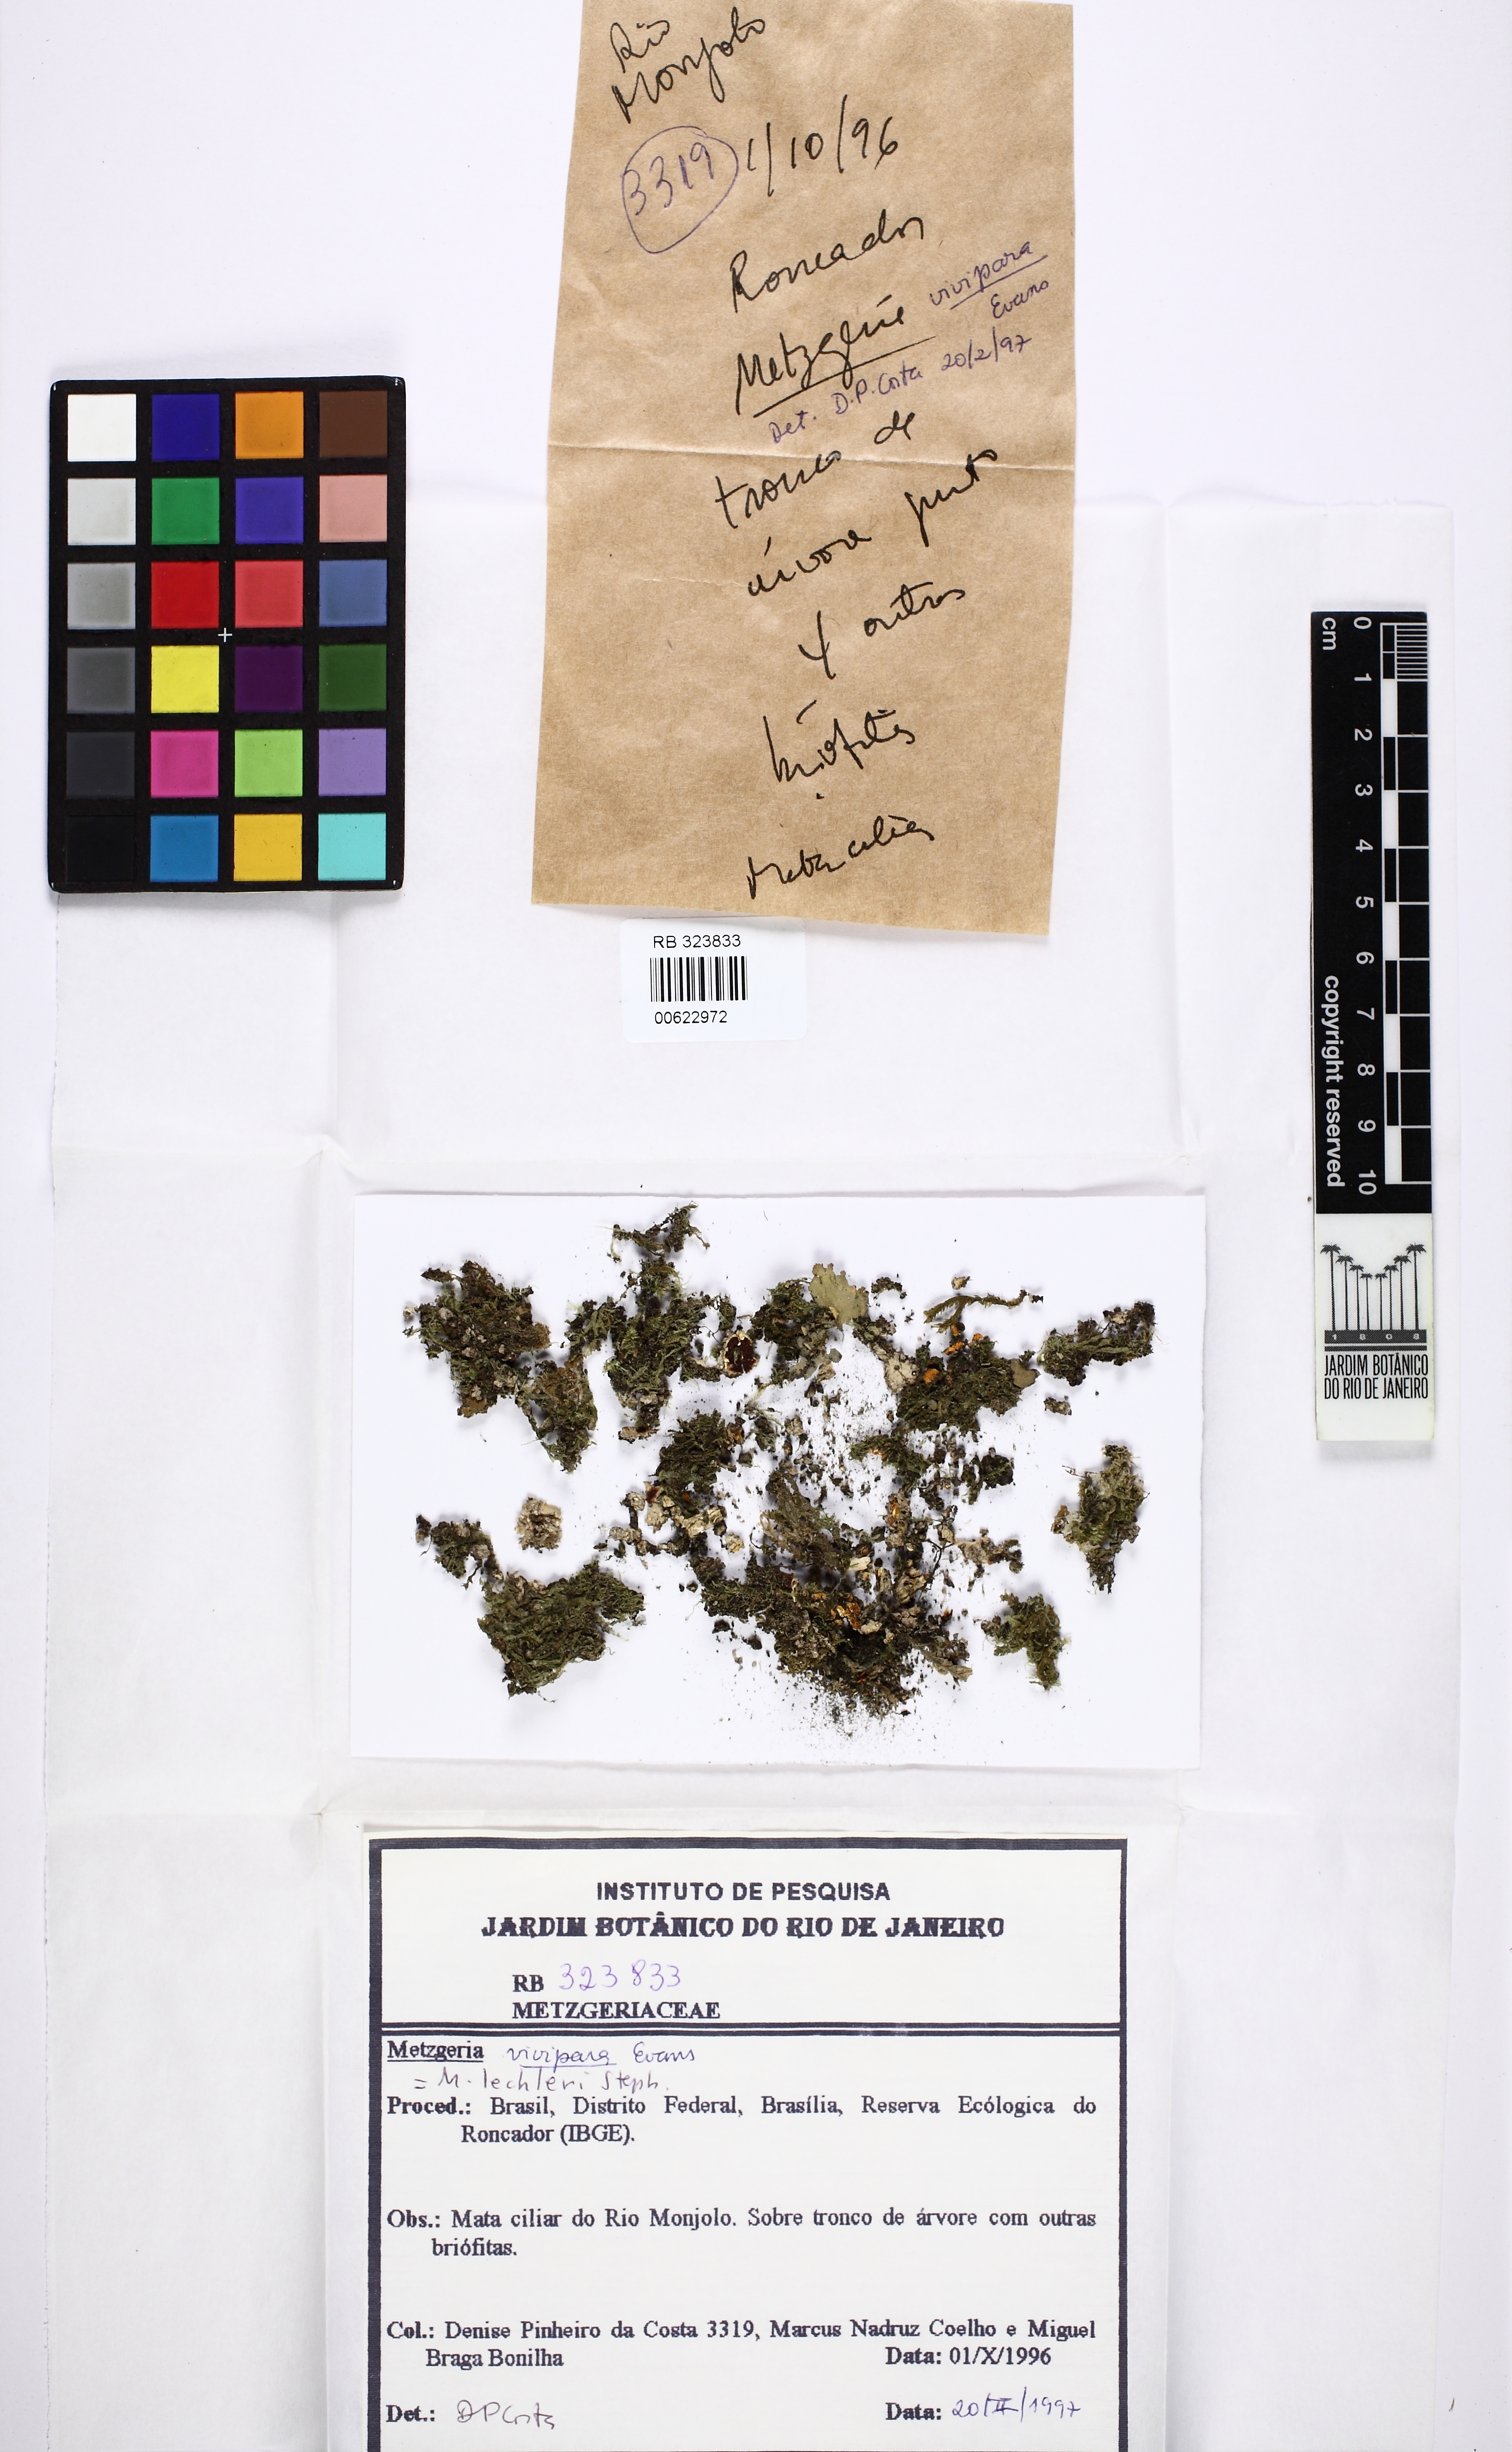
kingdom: Plantae
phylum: Marchantiophyta
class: Jungermanniopsida
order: Metzgeriales
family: Metzgeriaceae
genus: Metzgeria
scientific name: Metzgeria lechleri
